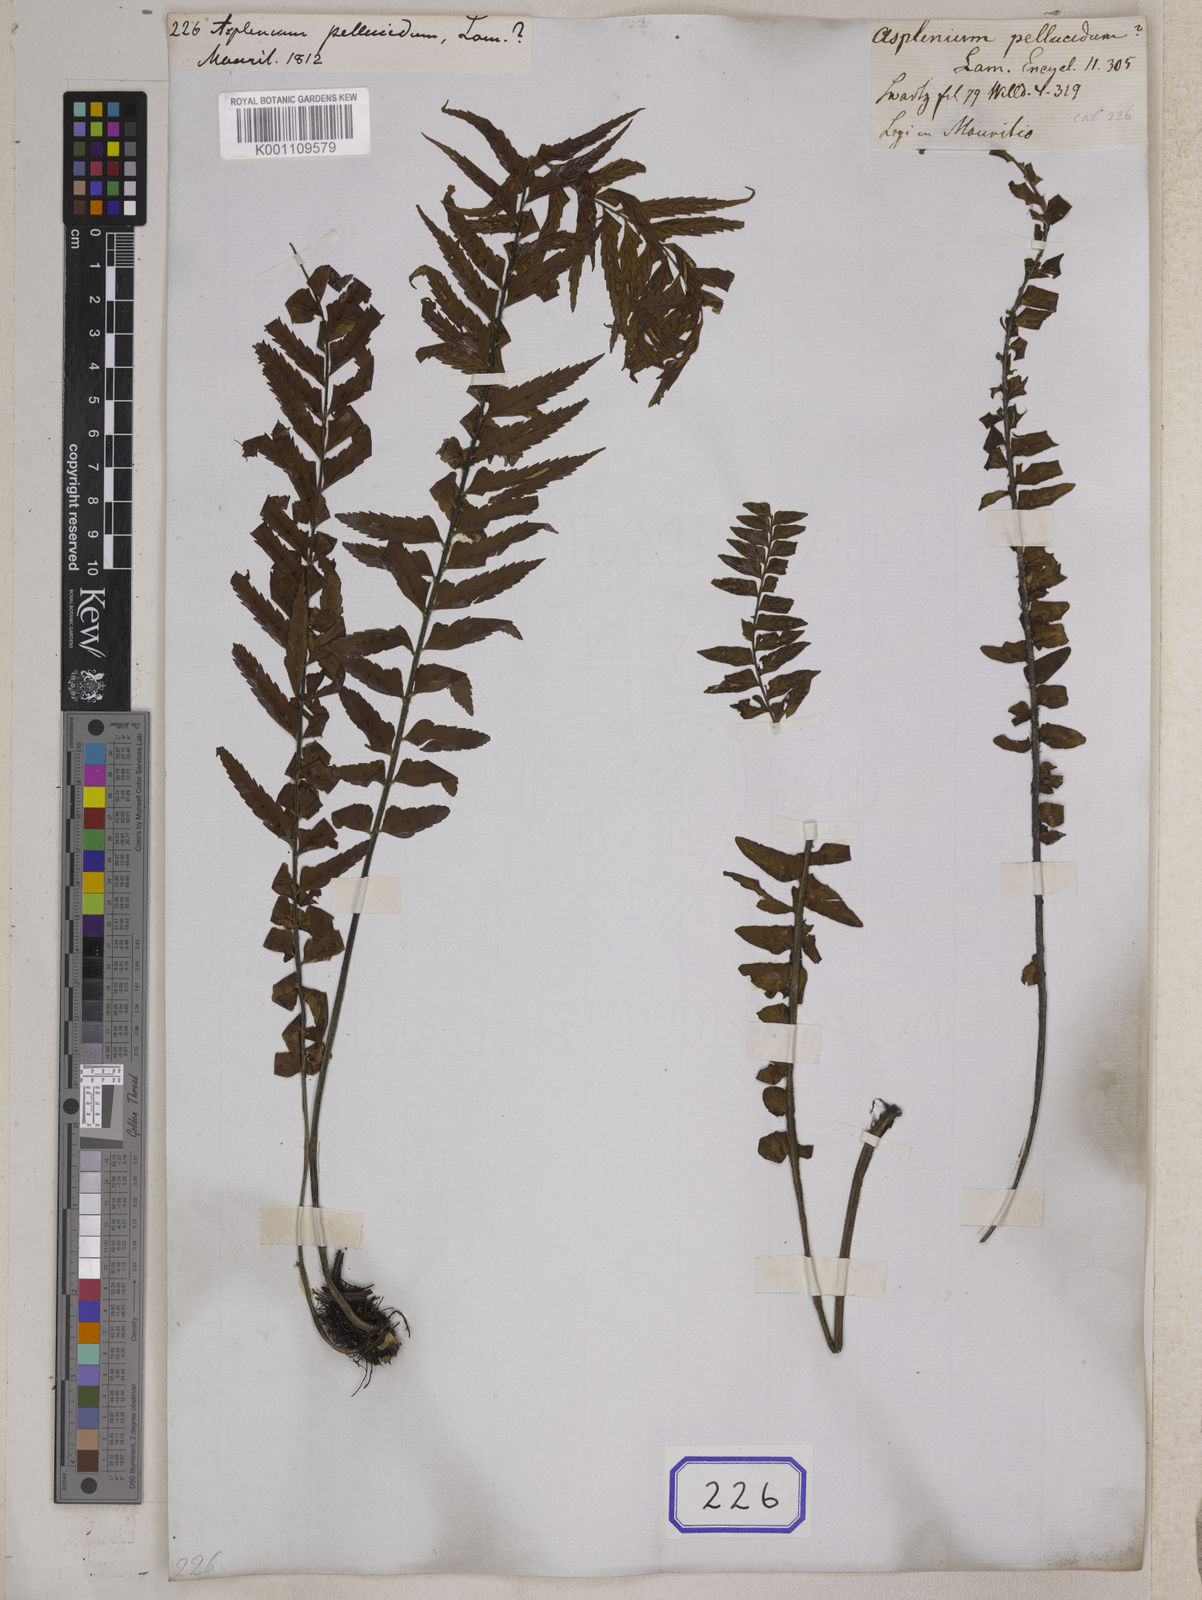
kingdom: Plantae
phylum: Tracheophyta
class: Polypodiopsida
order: Polypodiales
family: Aspleniaceae
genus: Asplenium
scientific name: Asplenium pellucidum
